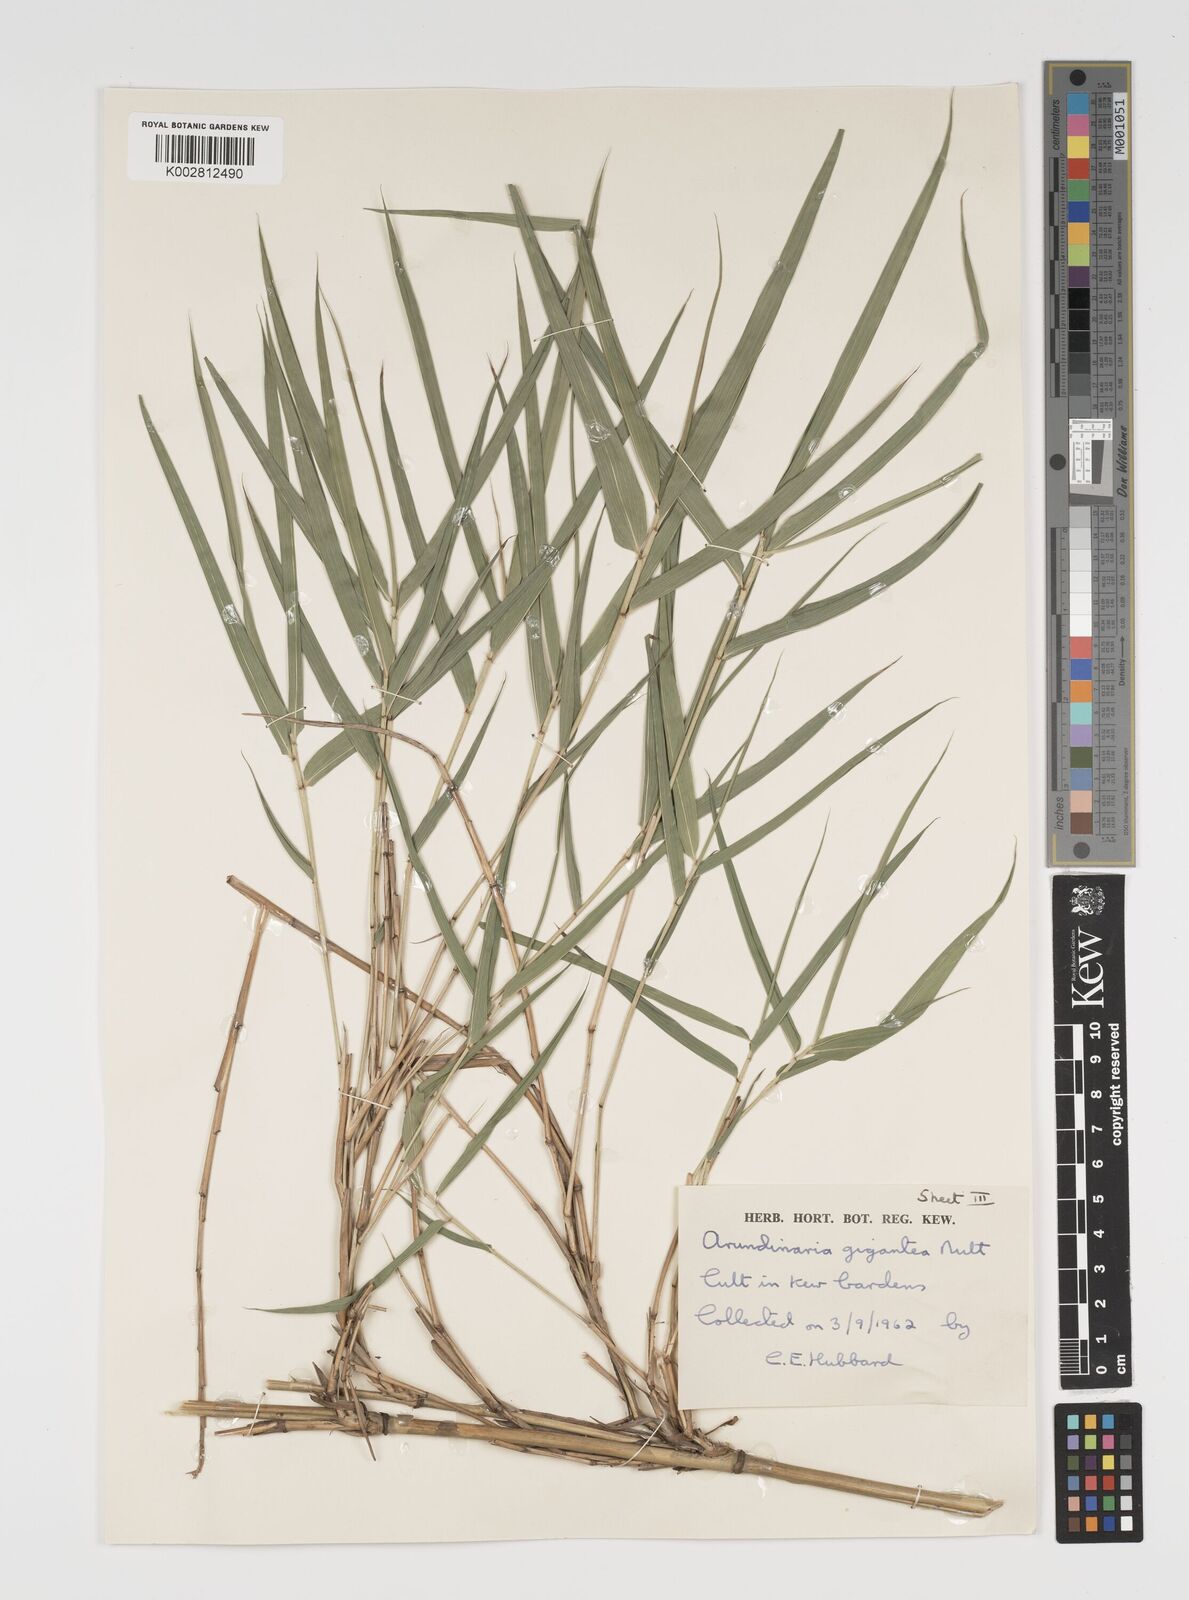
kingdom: Plantae
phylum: Tracheophyta
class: Liliopsida
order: Poales
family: Poaceae
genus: Pseudosasa
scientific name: Pseudosasa amabilis
